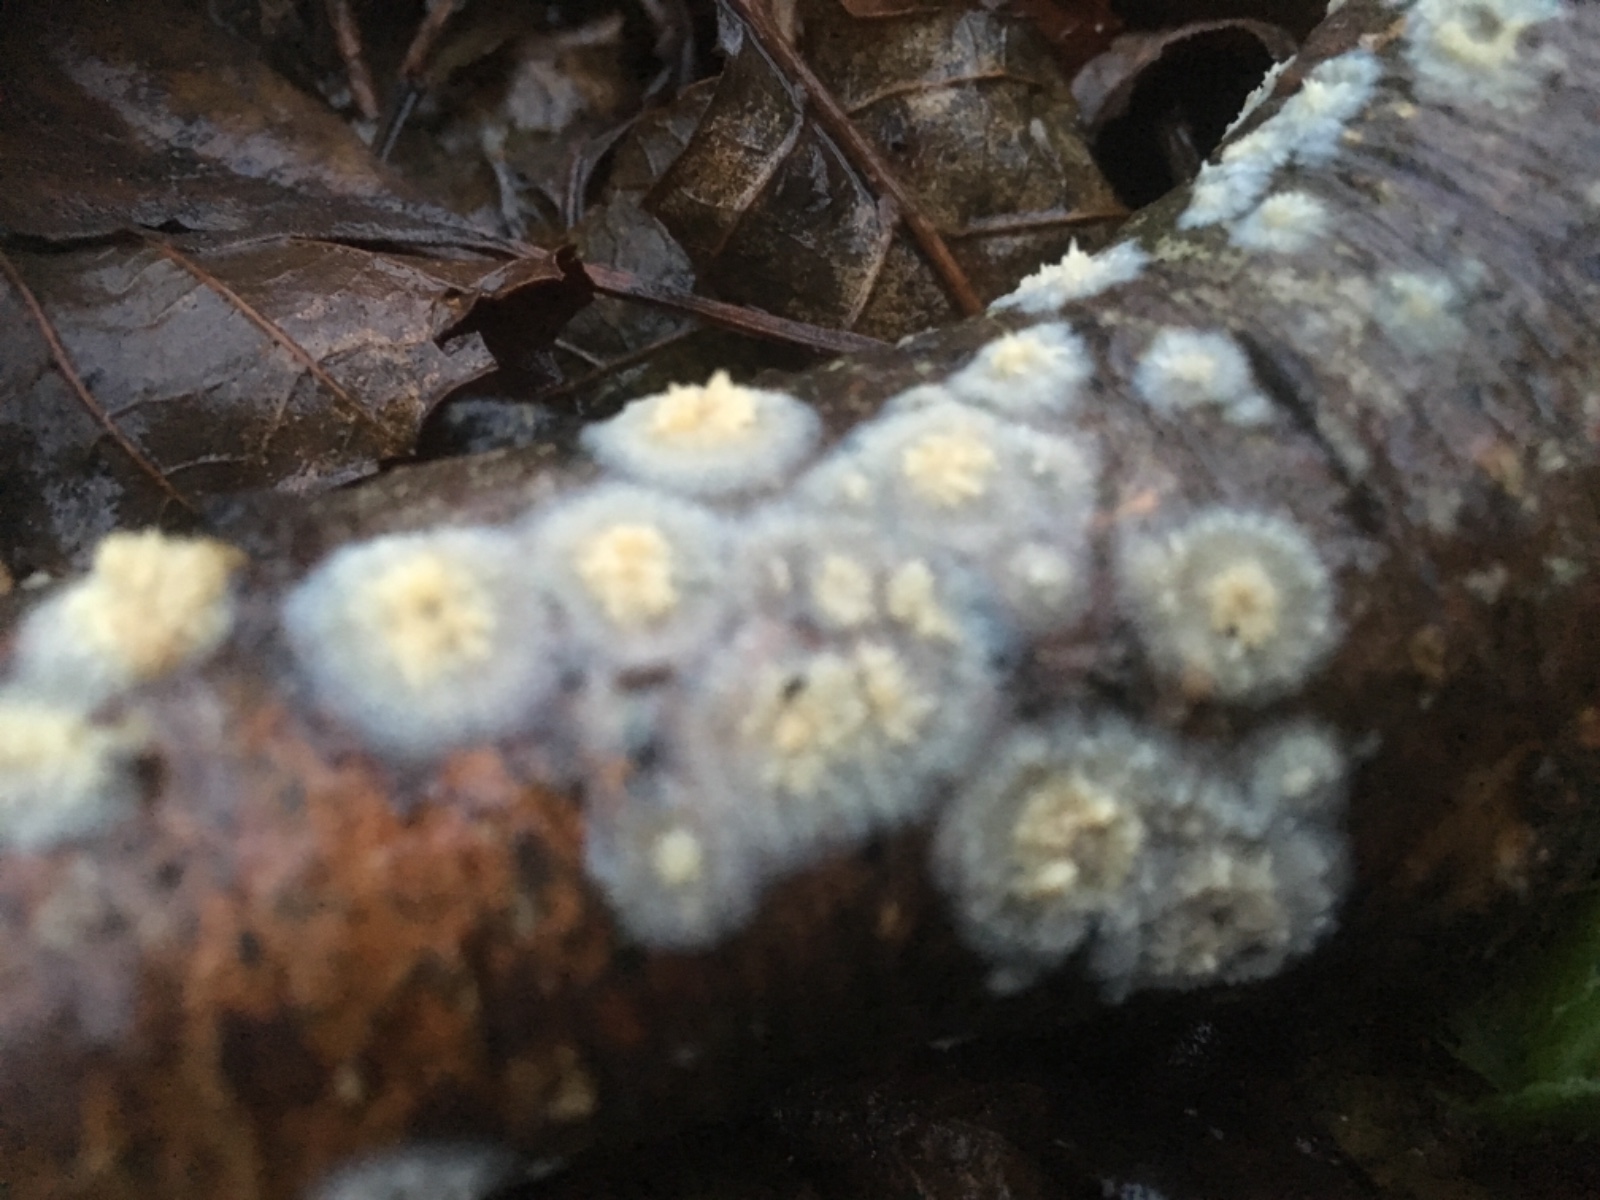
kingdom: Fungi
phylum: Basidiomycota
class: Agaricomycetes
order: Hymenochaetales
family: Schizoporaceae
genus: Xylodon
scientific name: Xylodon radula
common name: grovtandet kalkskind
